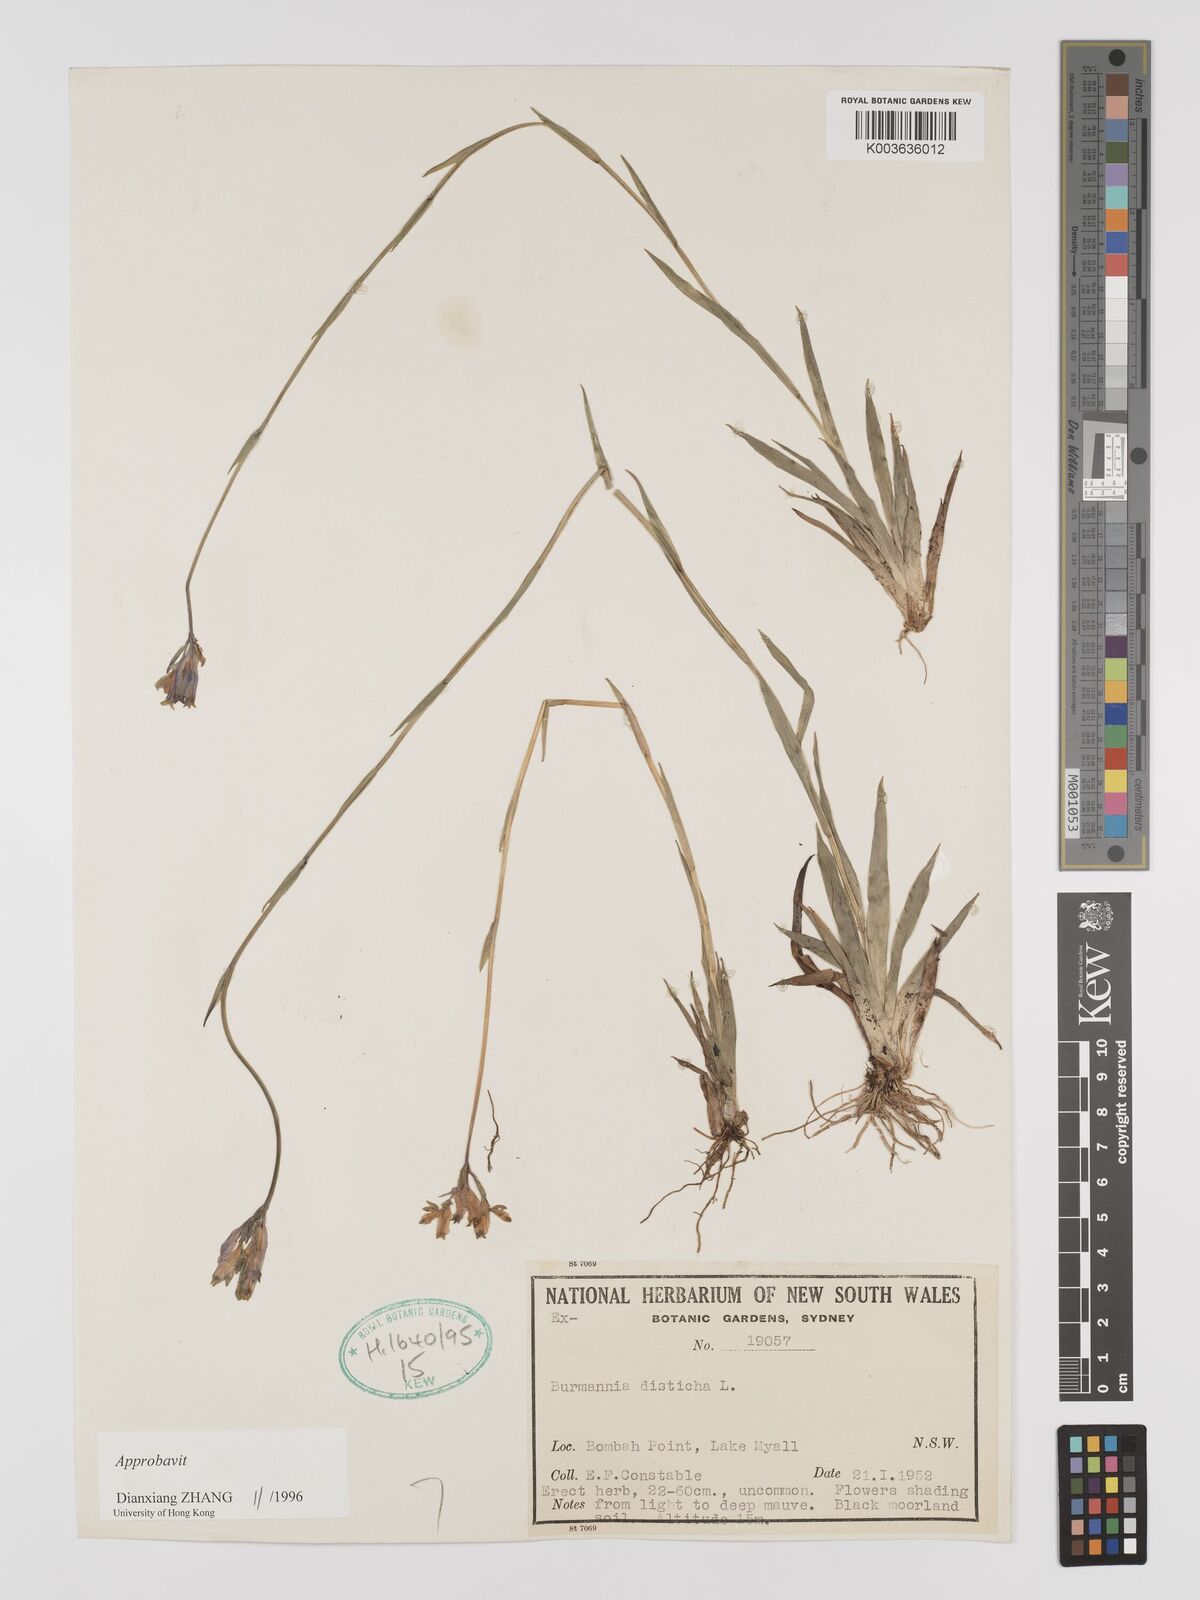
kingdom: Plantae
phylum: Tracheophyta
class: Liliopsida
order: Dioscoreales
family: Burmanniaceae
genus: Burmannia
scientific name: Burmannia disticha
